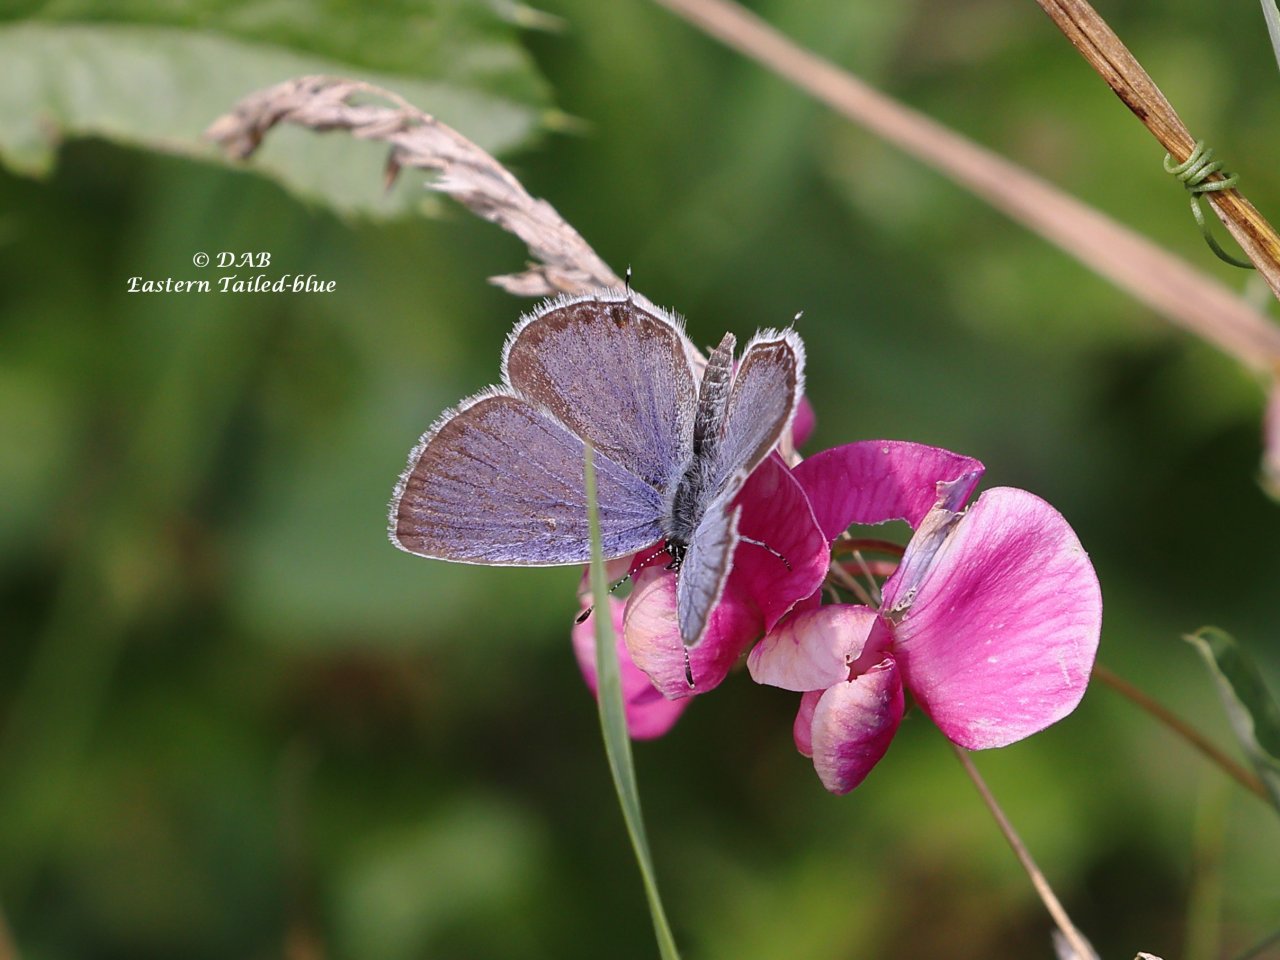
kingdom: Animalia
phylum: Arthropoda
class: Insecta
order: Lepidoptera
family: Lycaenidae
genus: Elkalyce
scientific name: Elkalyce comyntas
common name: Eastern Tailed-Blue
